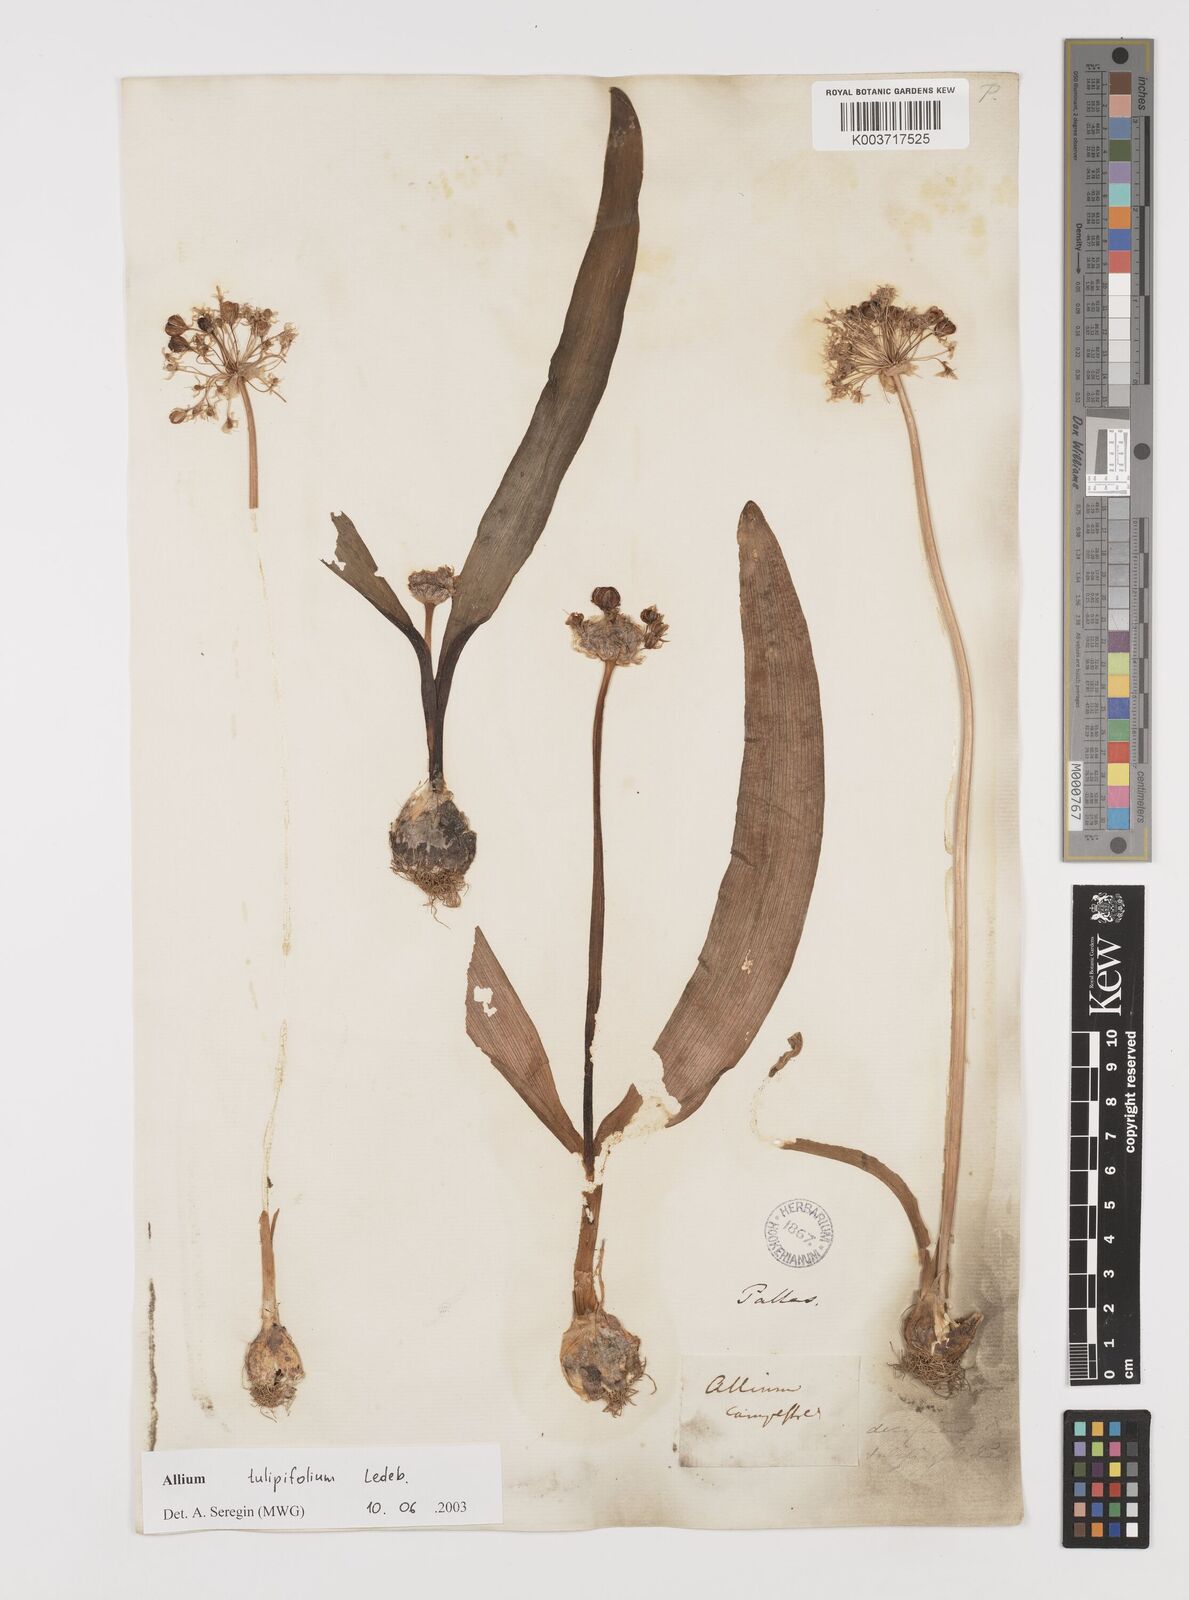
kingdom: Plantae
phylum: Tracheophyta
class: Liliopsida
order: Asparagales
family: Amaryllidaceae
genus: Allium
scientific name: Allium tulipifolium
